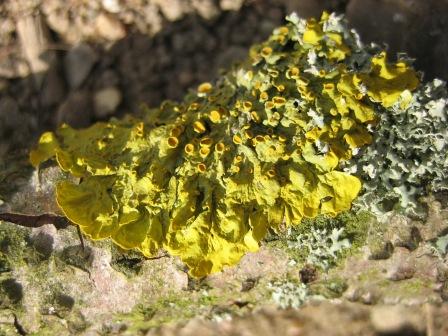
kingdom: Fungi
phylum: Ascomycota
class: Lecanoromycetes
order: Teloschistales
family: Teloschistaceae
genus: Xanthoria
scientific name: Xanthoria parietina
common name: almindelig væggelav
